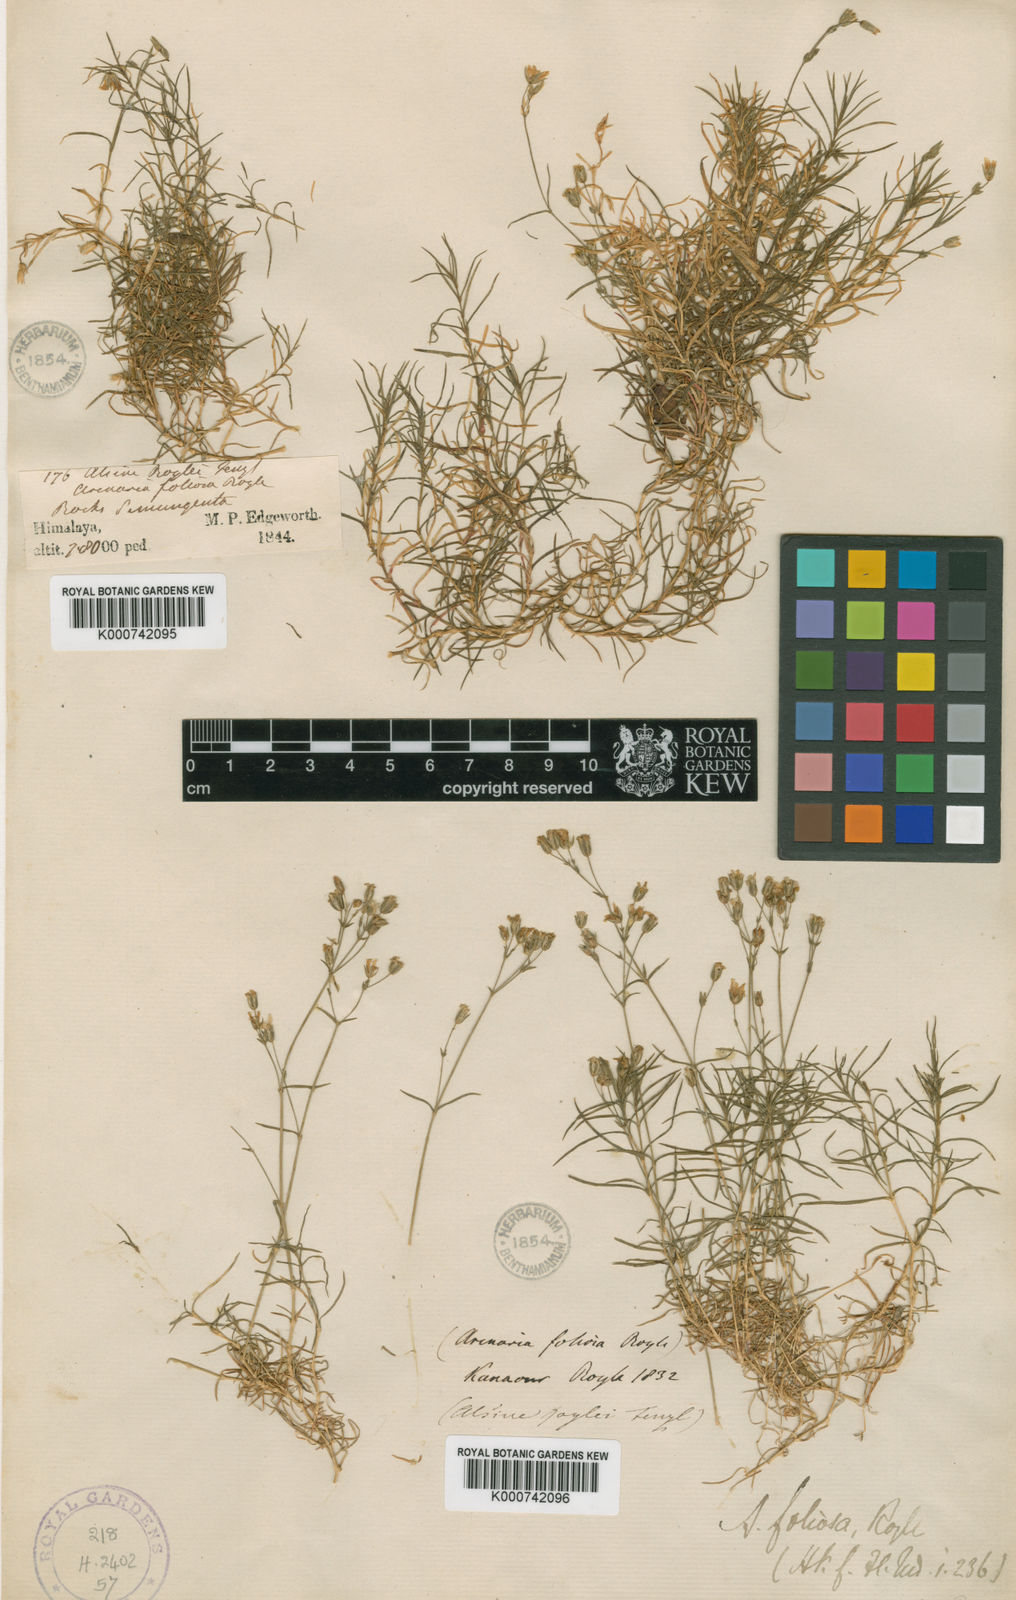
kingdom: Plantae
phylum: Tracheophyta
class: Magnoliopsida
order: Caryophyllales
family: Caryophyllaceae
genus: Sabulina
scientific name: Sabulina foliosa
